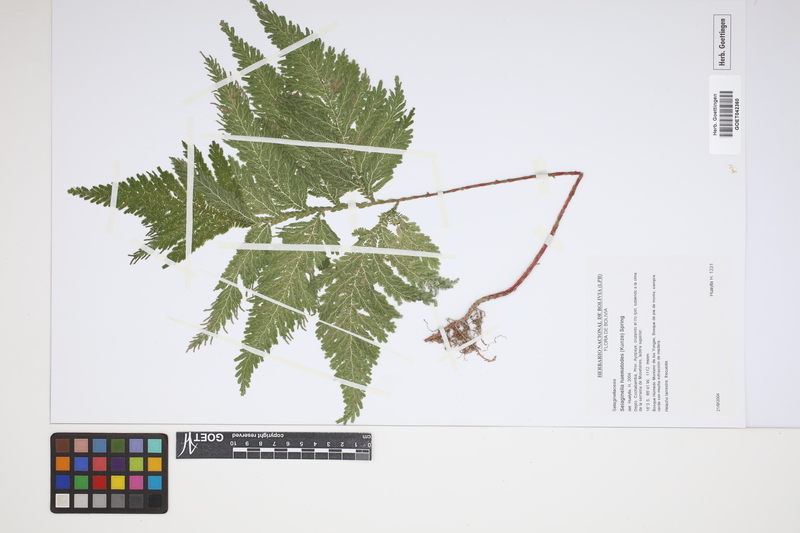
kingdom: Plantae
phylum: Tracheophyta
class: Lycopodiopsida
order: Selaginellales
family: Selaginellaceae
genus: Selaginella
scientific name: Selaginella haematodes
